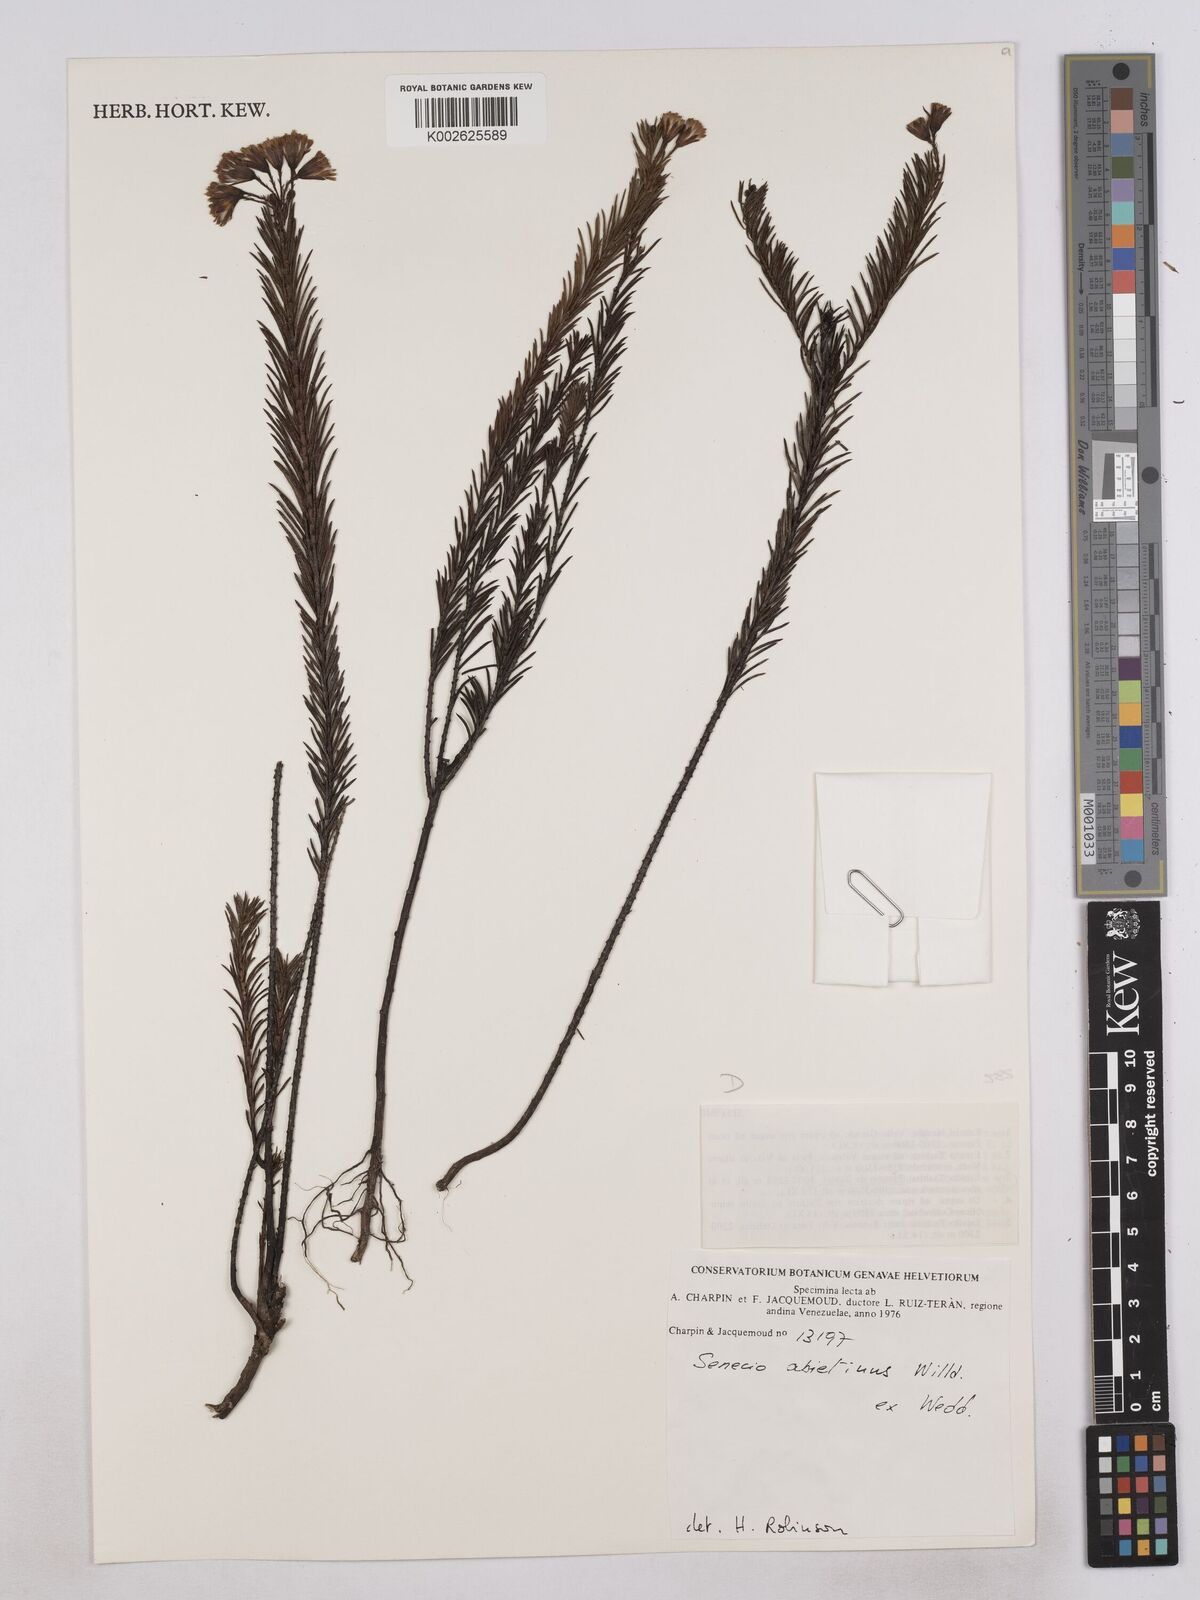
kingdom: Plantae
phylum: Tracheophyta
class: Magnoliopsida
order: Asterales
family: Asteraceae
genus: Monticalia
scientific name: Monticalia abietina
